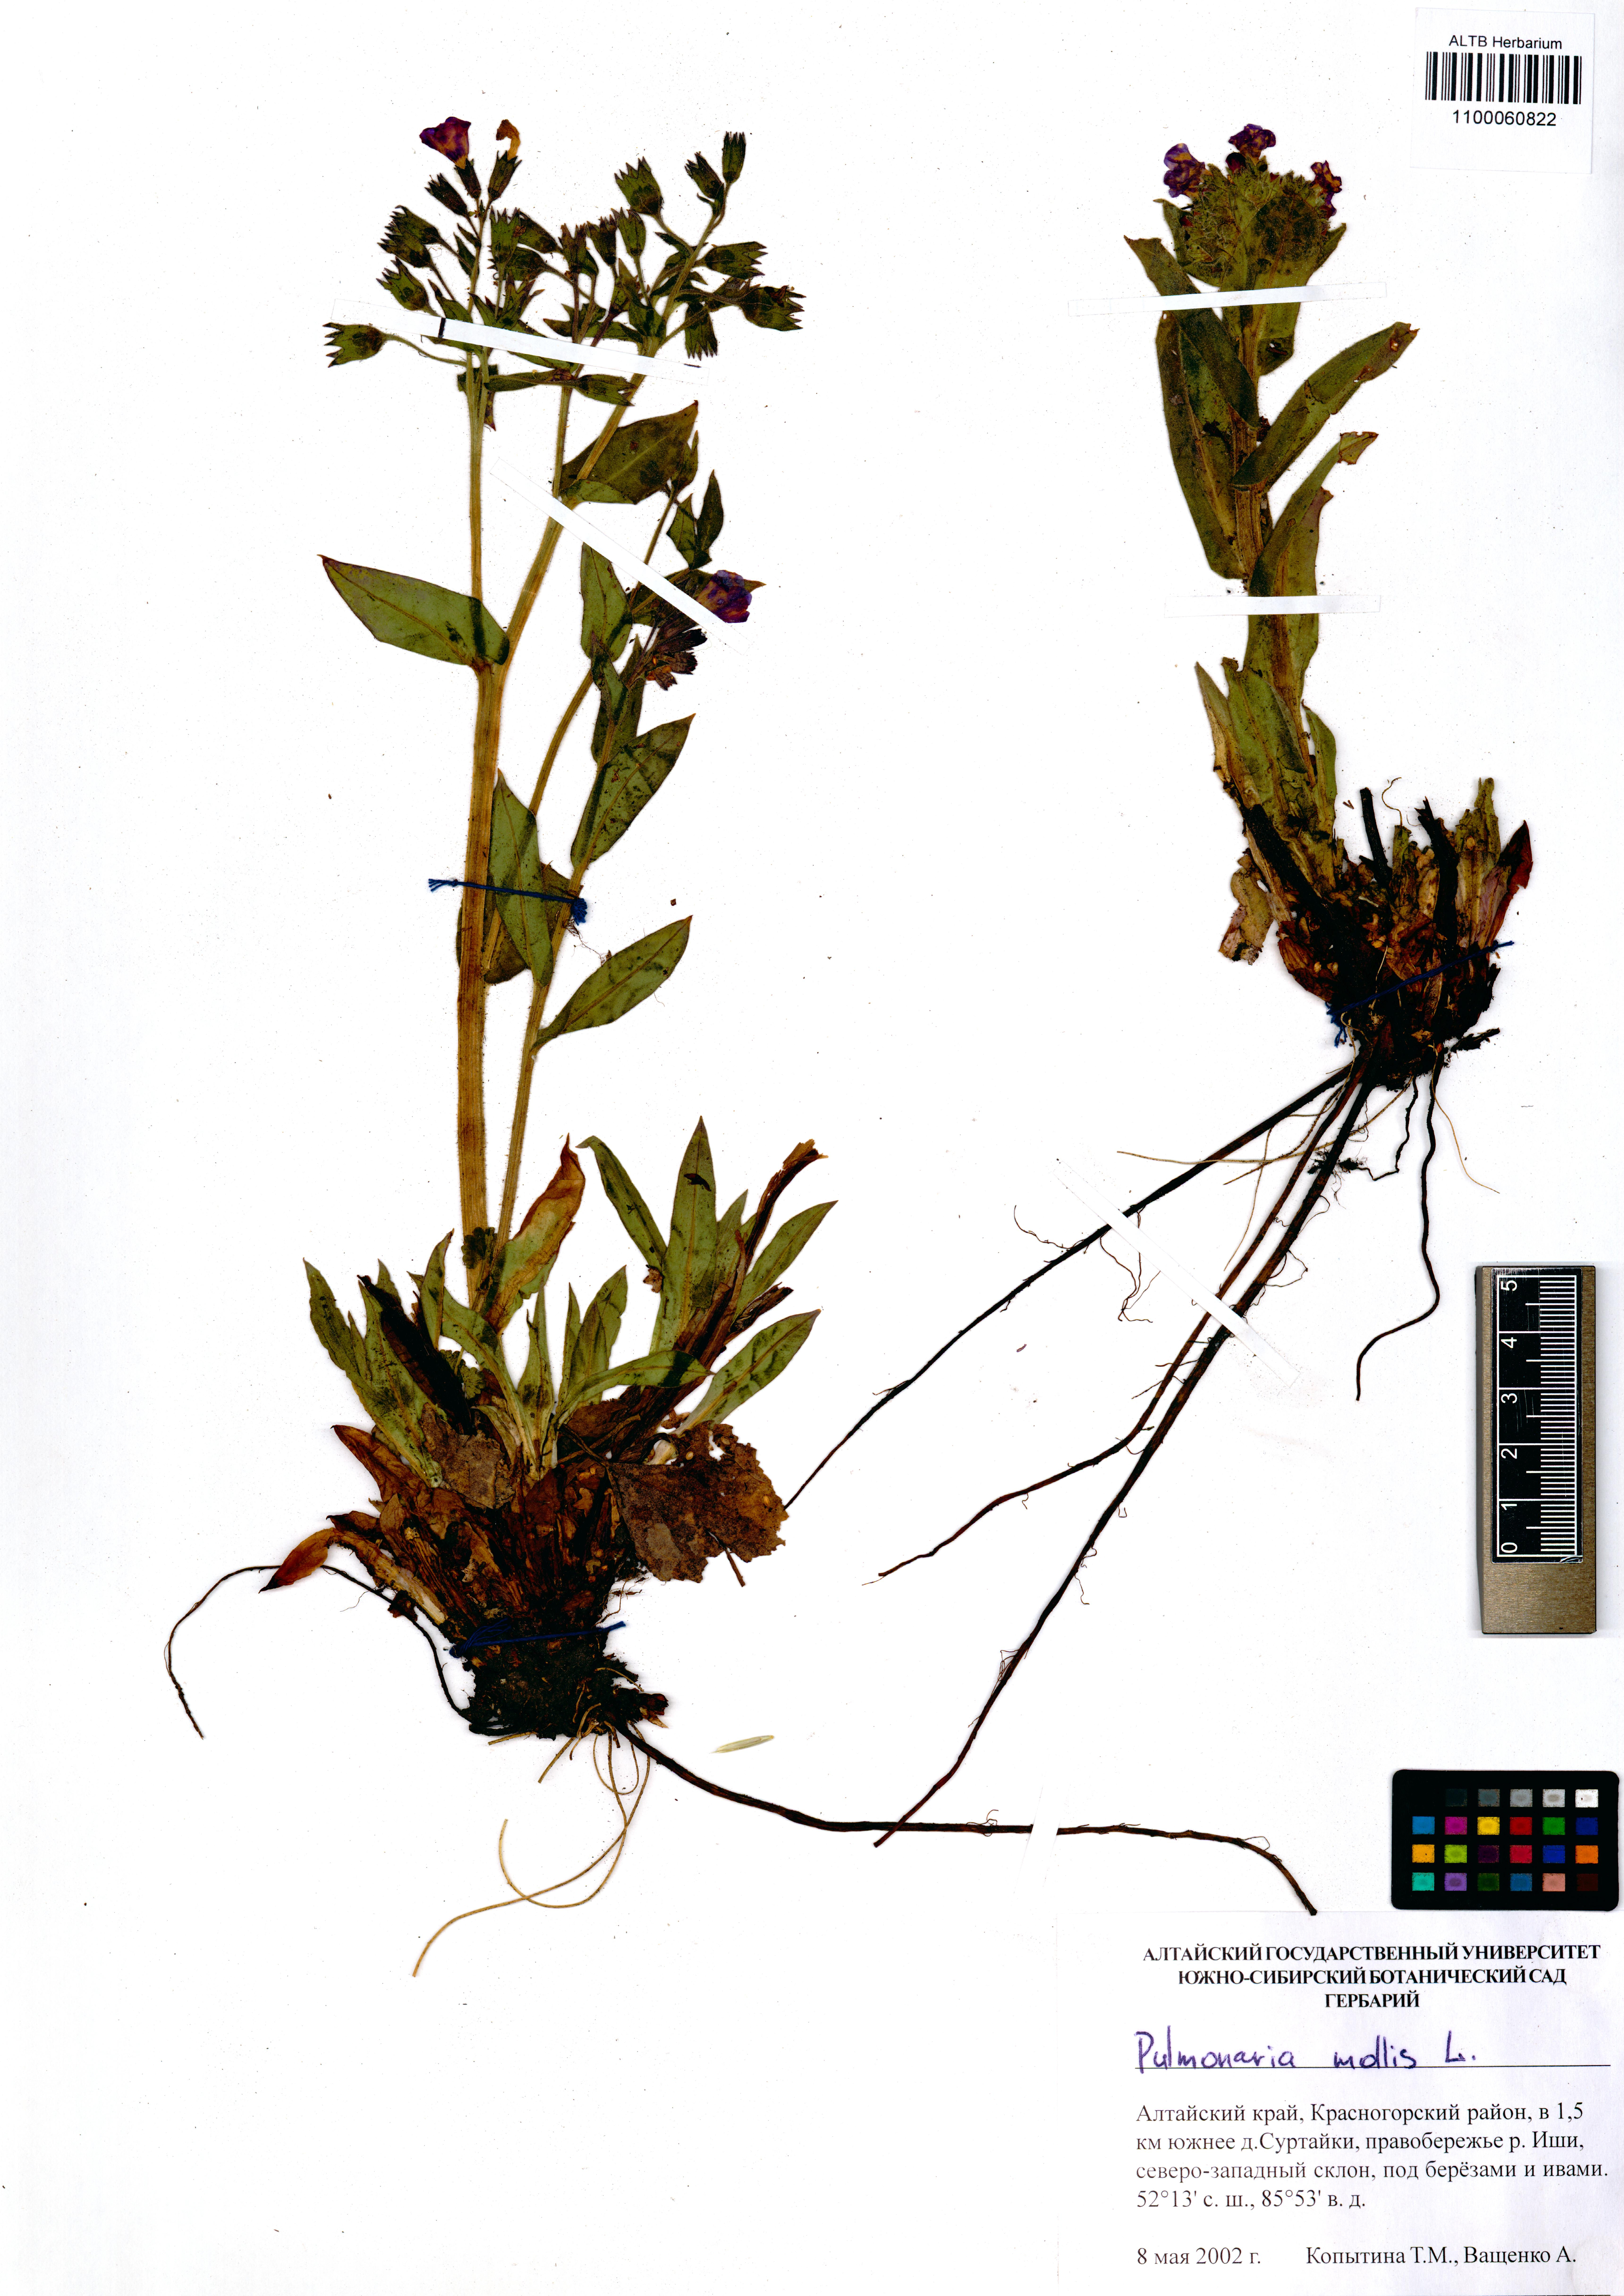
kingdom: Plantae
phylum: Tracheophyta
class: Magnoliopsida
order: Boraginales
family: Boraginaceae
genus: Pulmonaria
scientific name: Pulmonaria mollis
